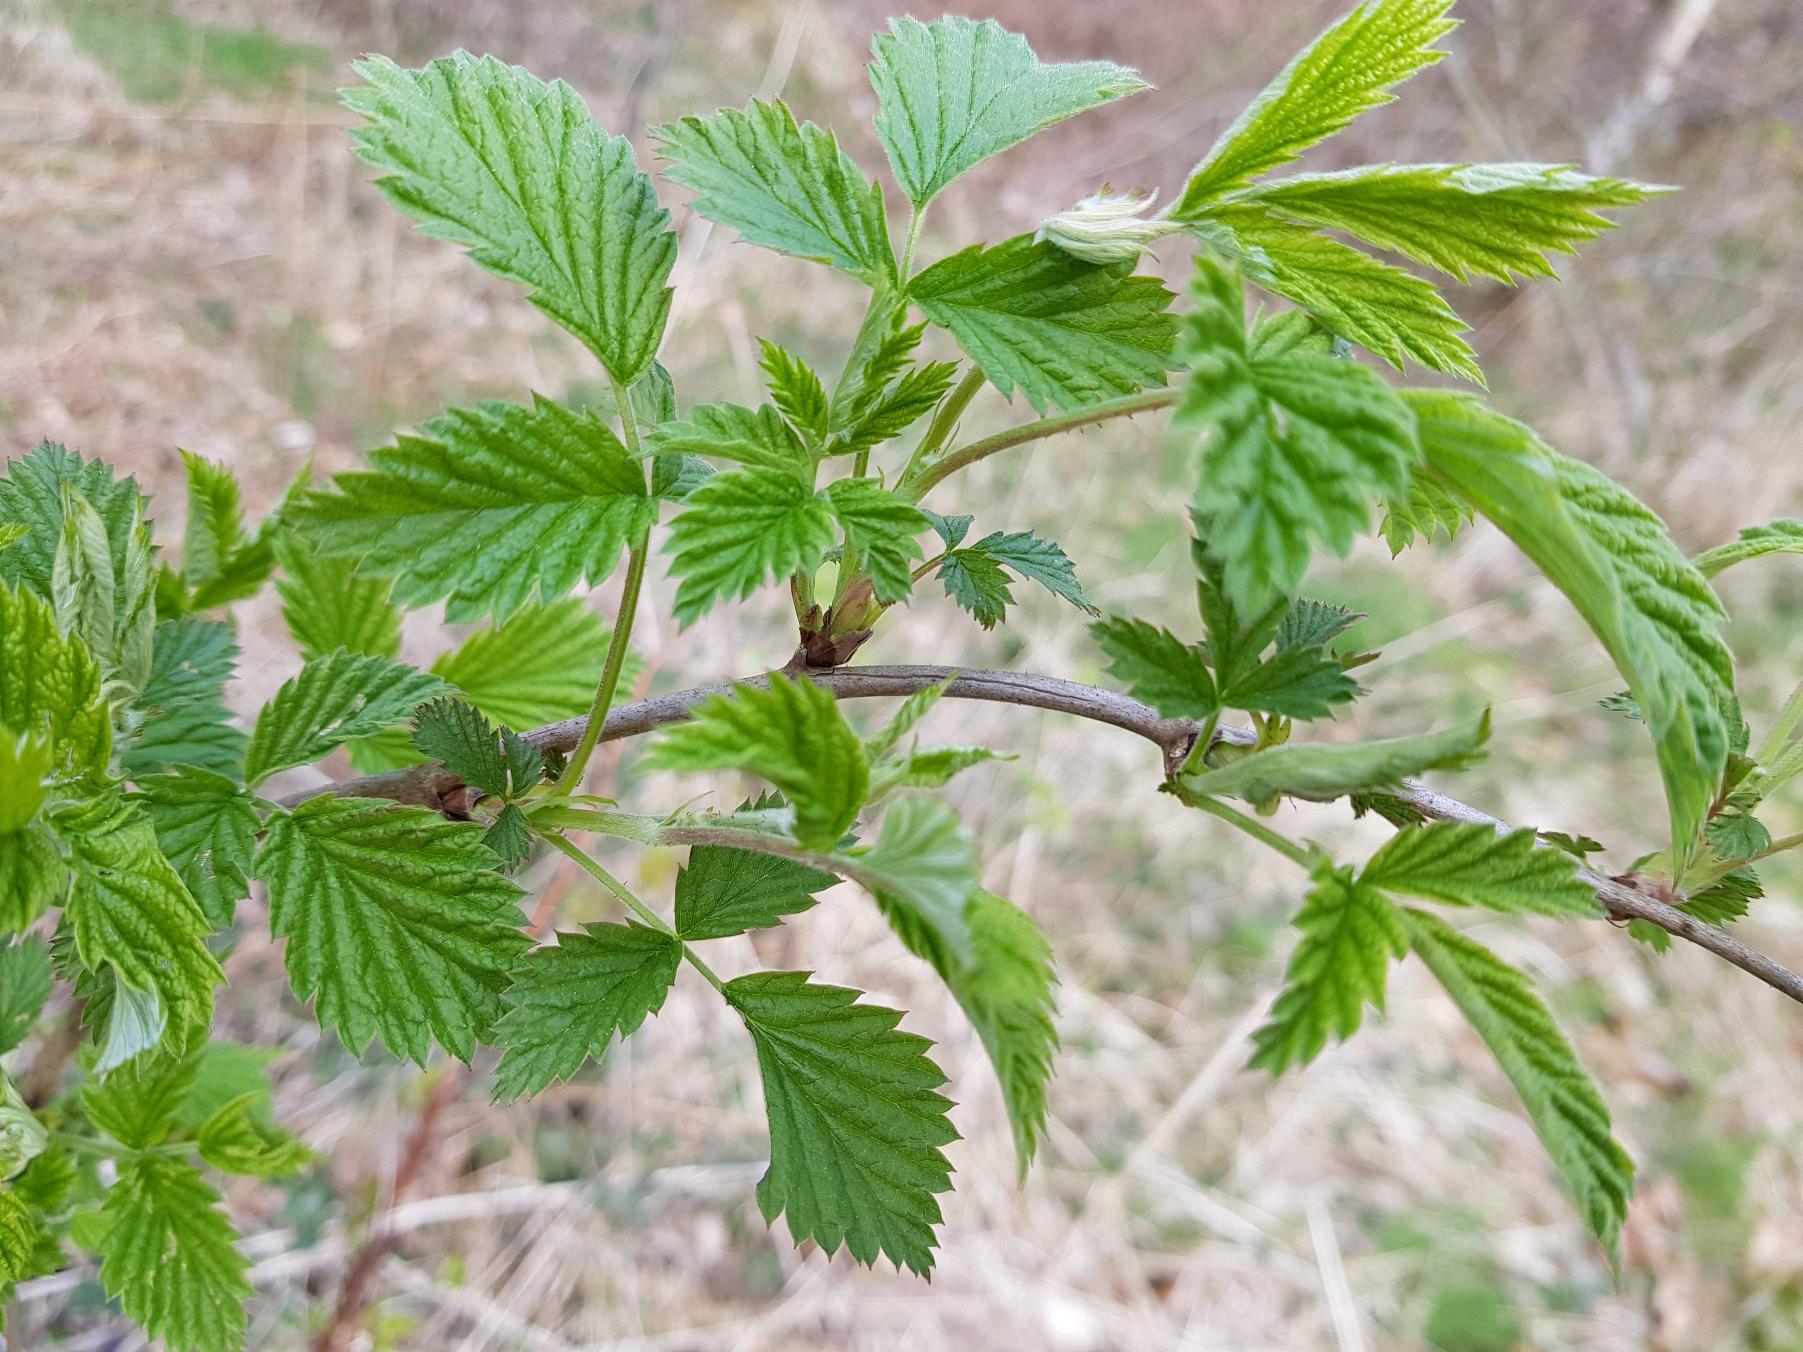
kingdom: Plantae
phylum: Tracheophyta
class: Magnoliopsida
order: Rosales
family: Rosaceae
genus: Rubus
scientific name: Rubus idaeus
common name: Hindbær
